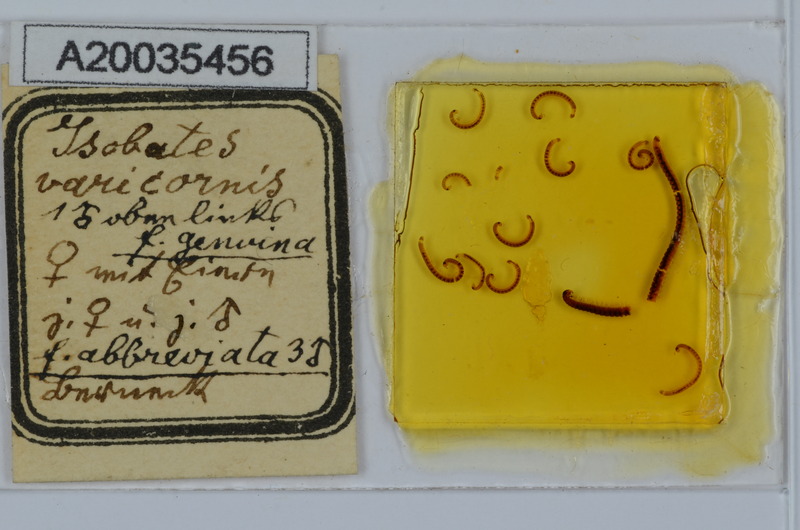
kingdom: Animalia
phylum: Arthropoda
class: Diplopoda
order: Julida
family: Nemasomatidae
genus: Isobates
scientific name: Isobates varicornis
